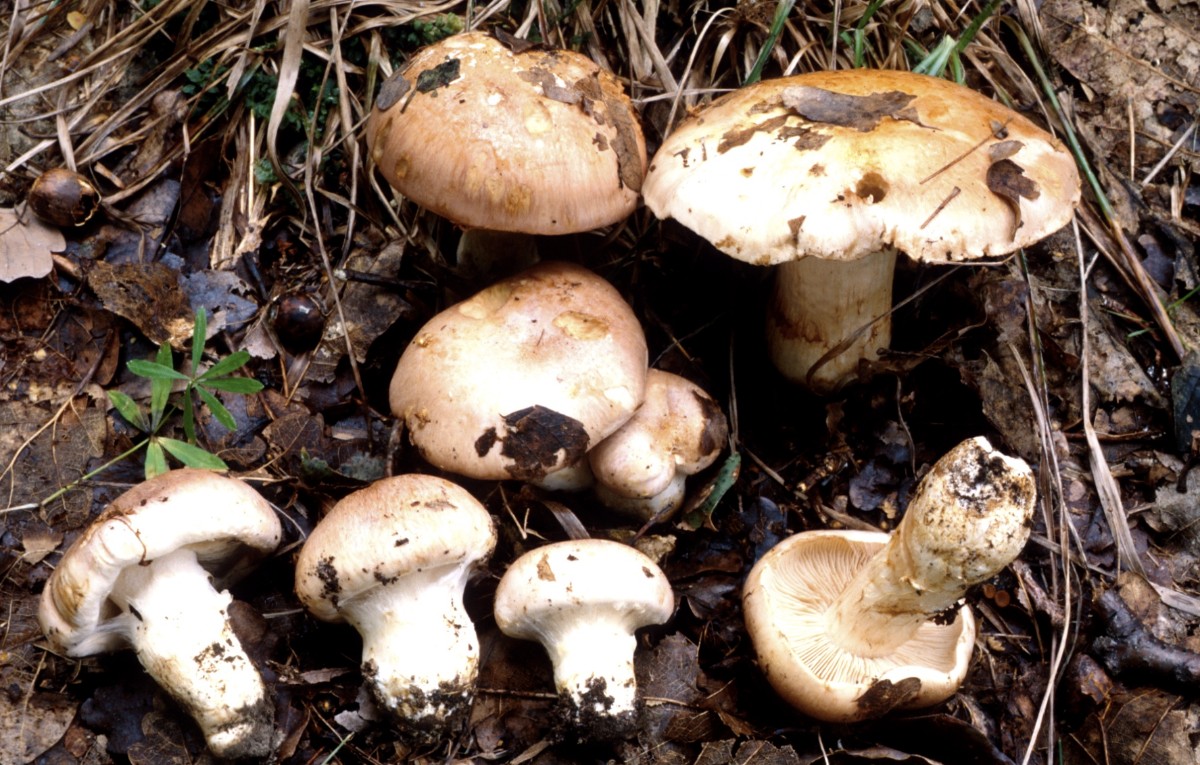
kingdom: Fungi
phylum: Basidiomycota
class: Agaricomycetes
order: Agaricales
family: Cortinariaceae
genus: Phlegmacium
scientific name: Phlegmacium daulnoyae
